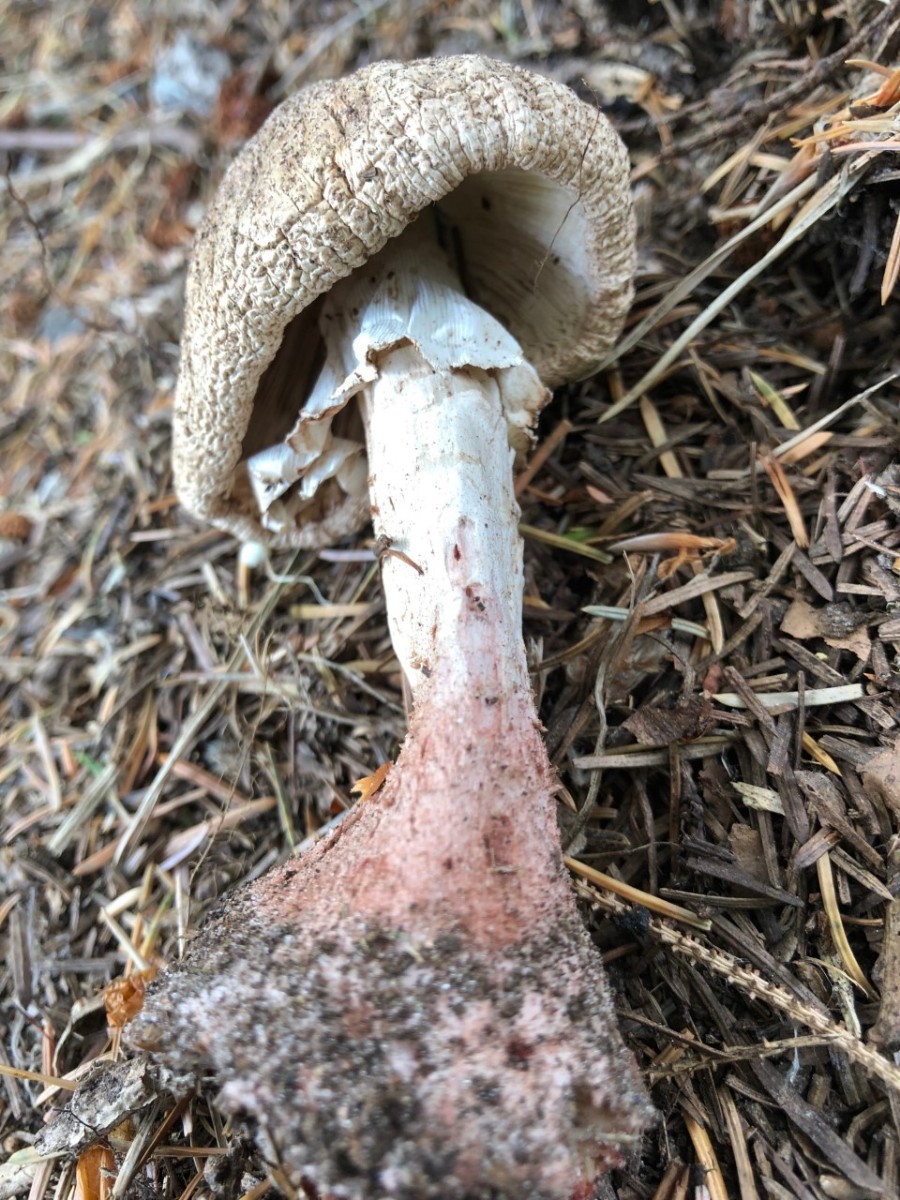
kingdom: Fungi
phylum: Basidiomycota
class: Agaricomycetes
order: Agaricales
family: Amanitaceae
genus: Amanita
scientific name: Amanita rubescens
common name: rødmende fluesvamp
